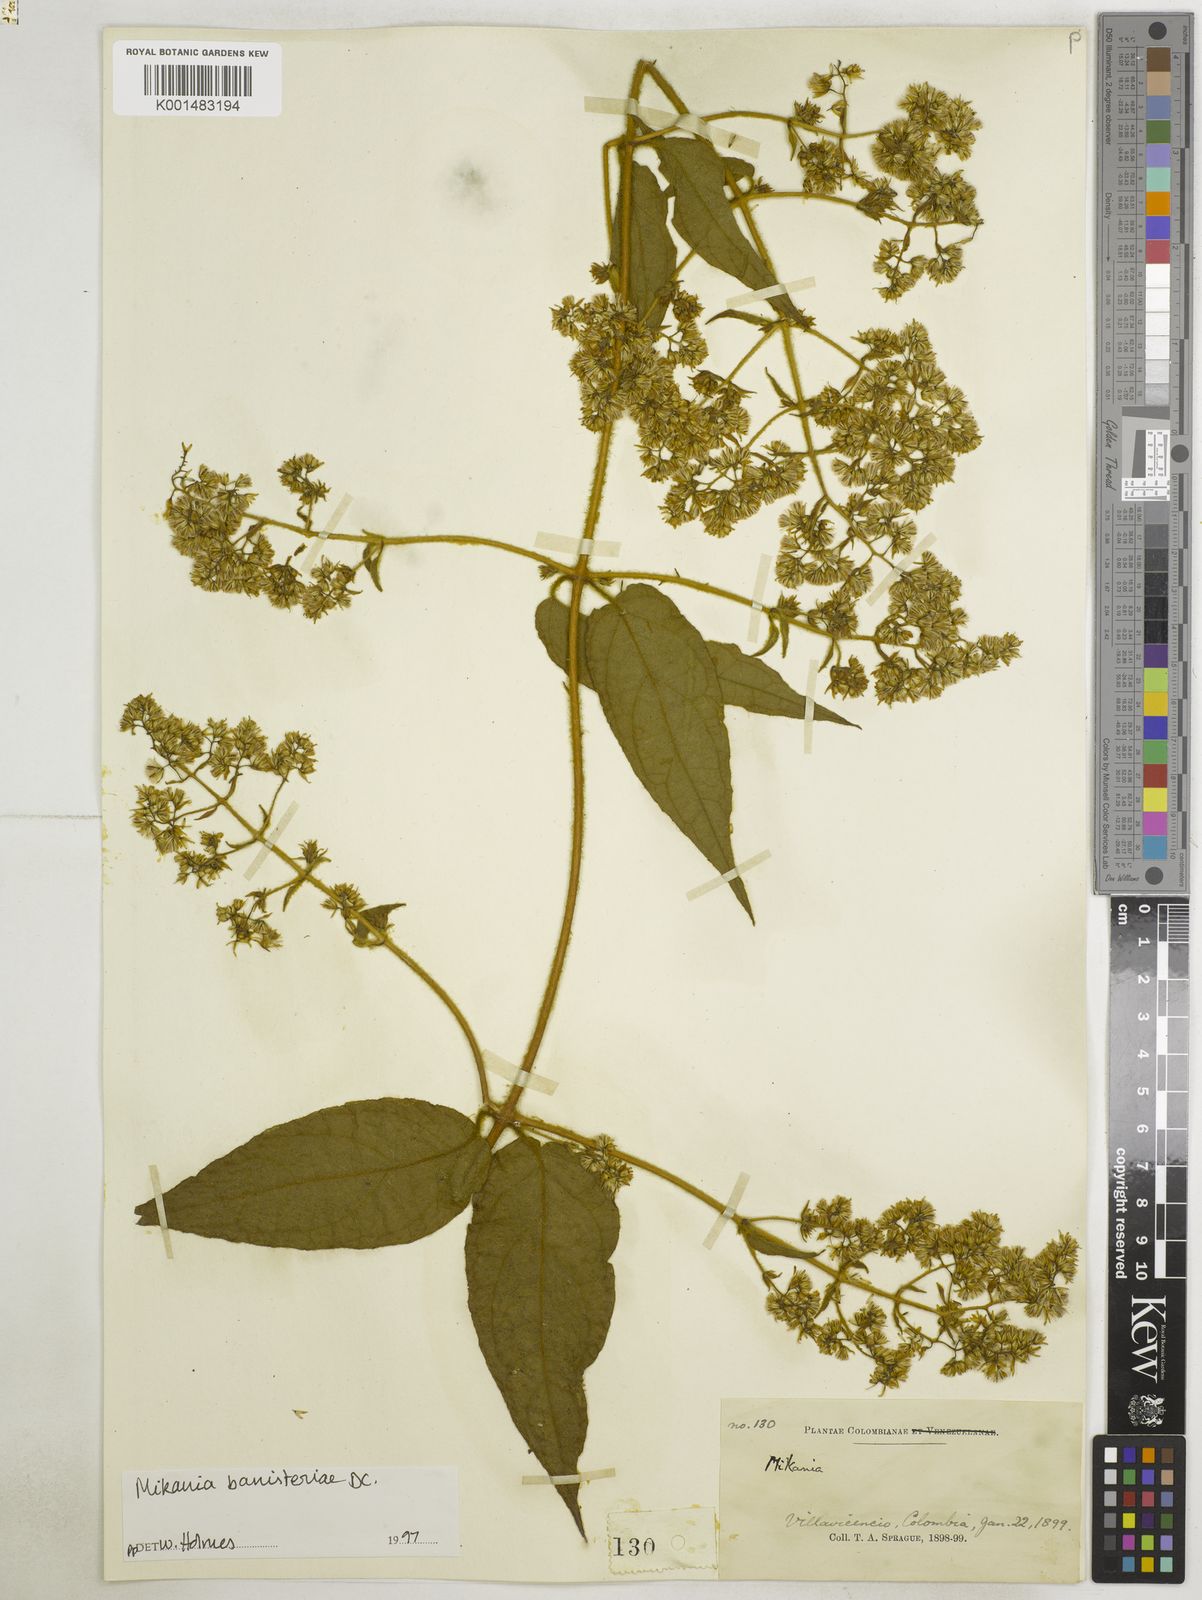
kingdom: Plantae
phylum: Tracheophyta
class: Magnoliopsida
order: Asterales
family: Asteraceae
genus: Mikania
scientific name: Mikania banisteriae
